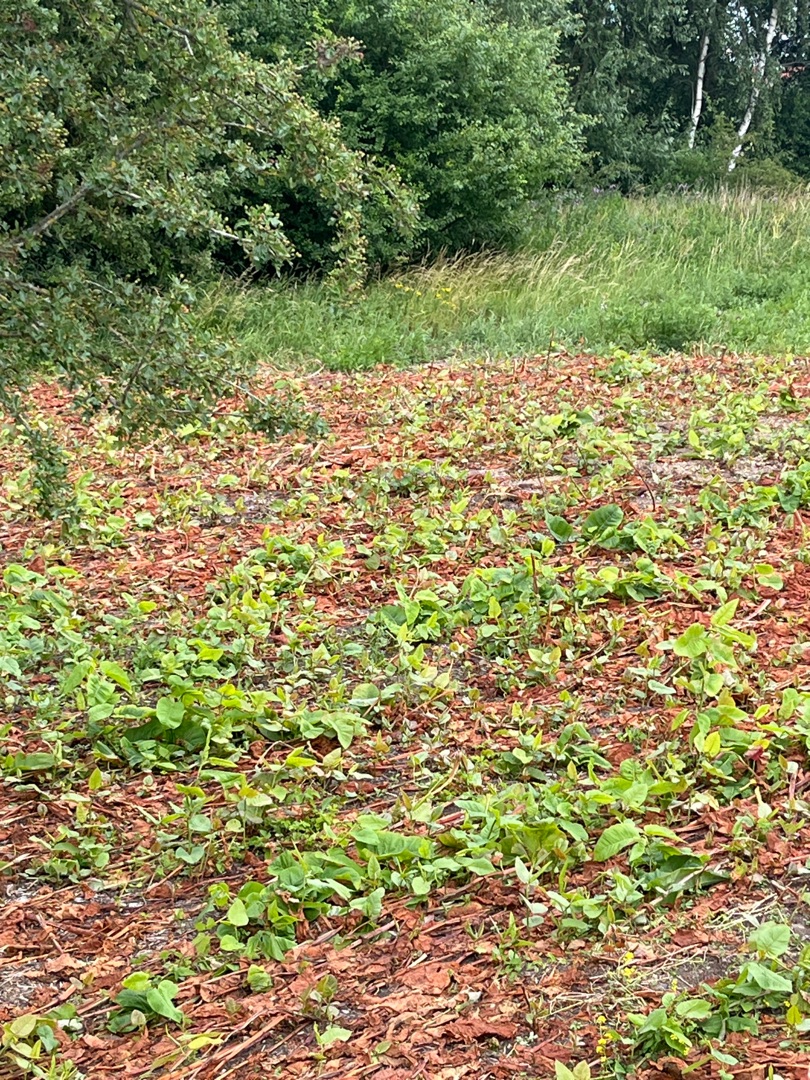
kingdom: Plantae
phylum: Tracheophyta
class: Magnoliopsida
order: Caryophyllales
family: Polygonaceae
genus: Reynoutria
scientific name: Reynoutria sachalinensis
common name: Kæmpe-pileurt
